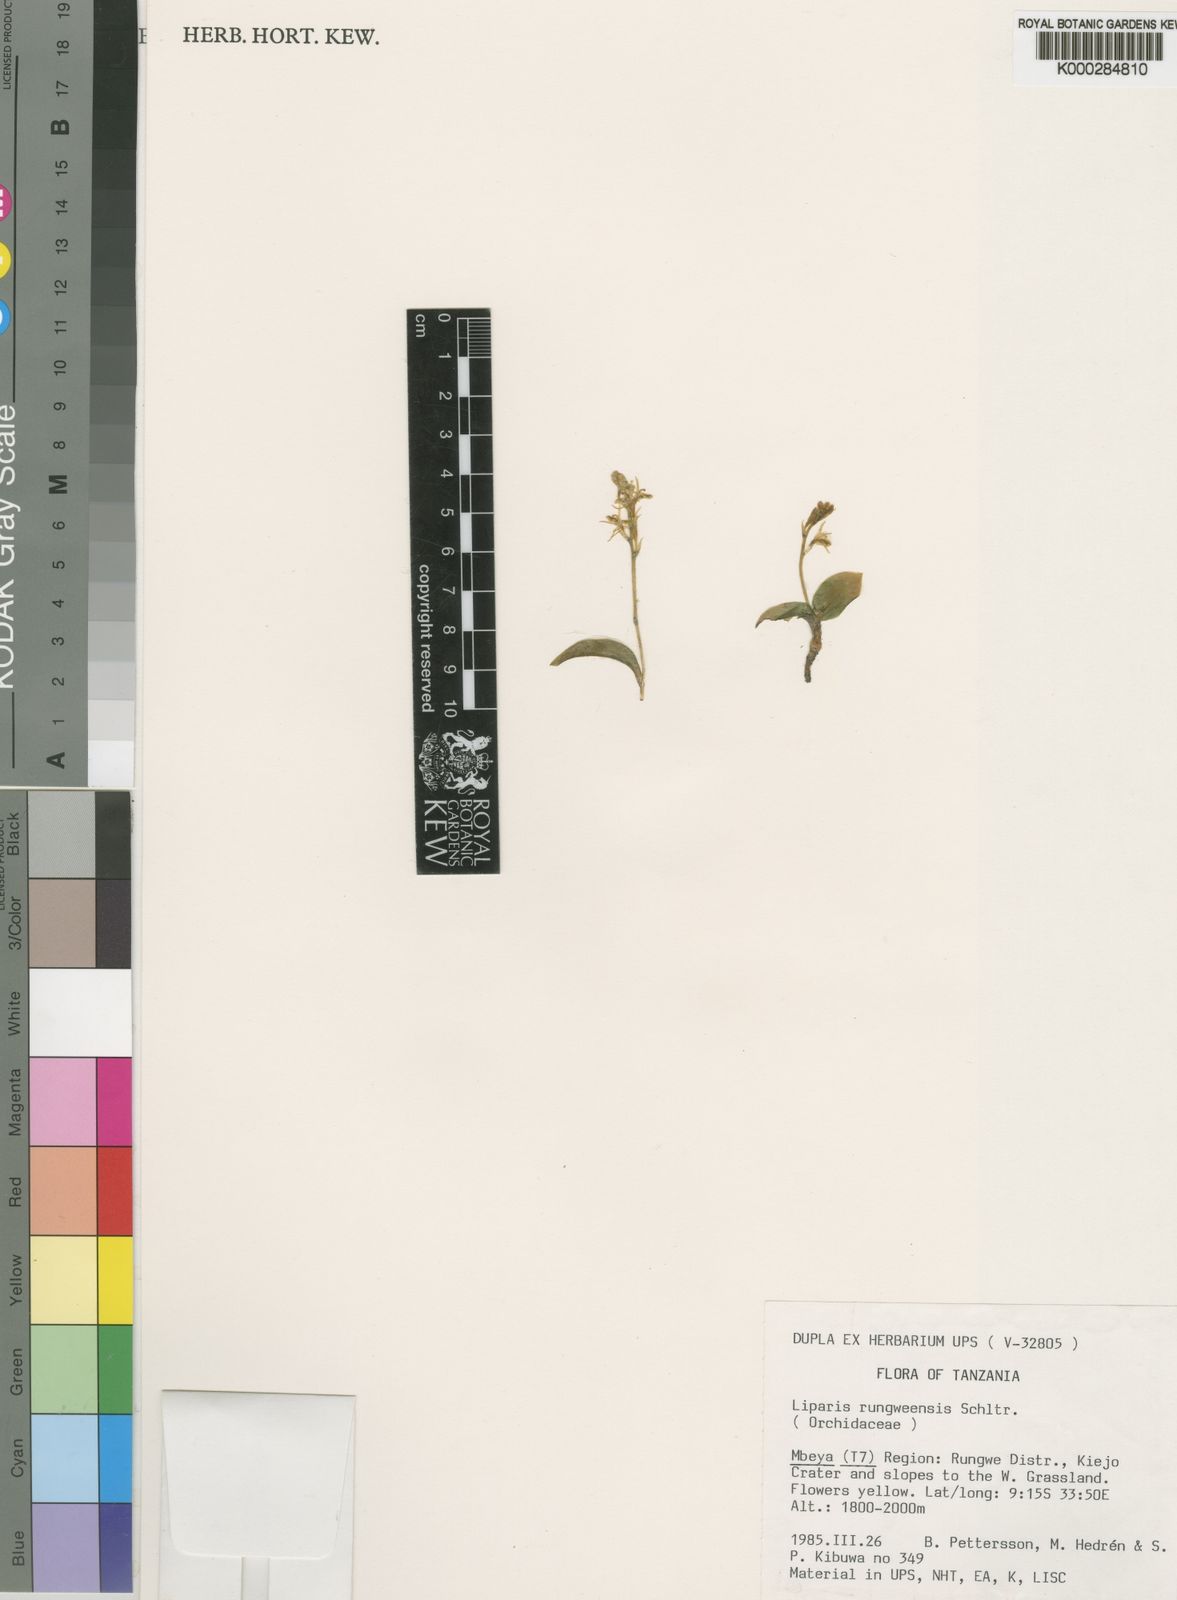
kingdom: Plantae
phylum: Tracheophyta
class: Liliopsida
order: Asparagales
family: Orchidaceae
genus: Liparis
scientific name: Liparis rungweensis
